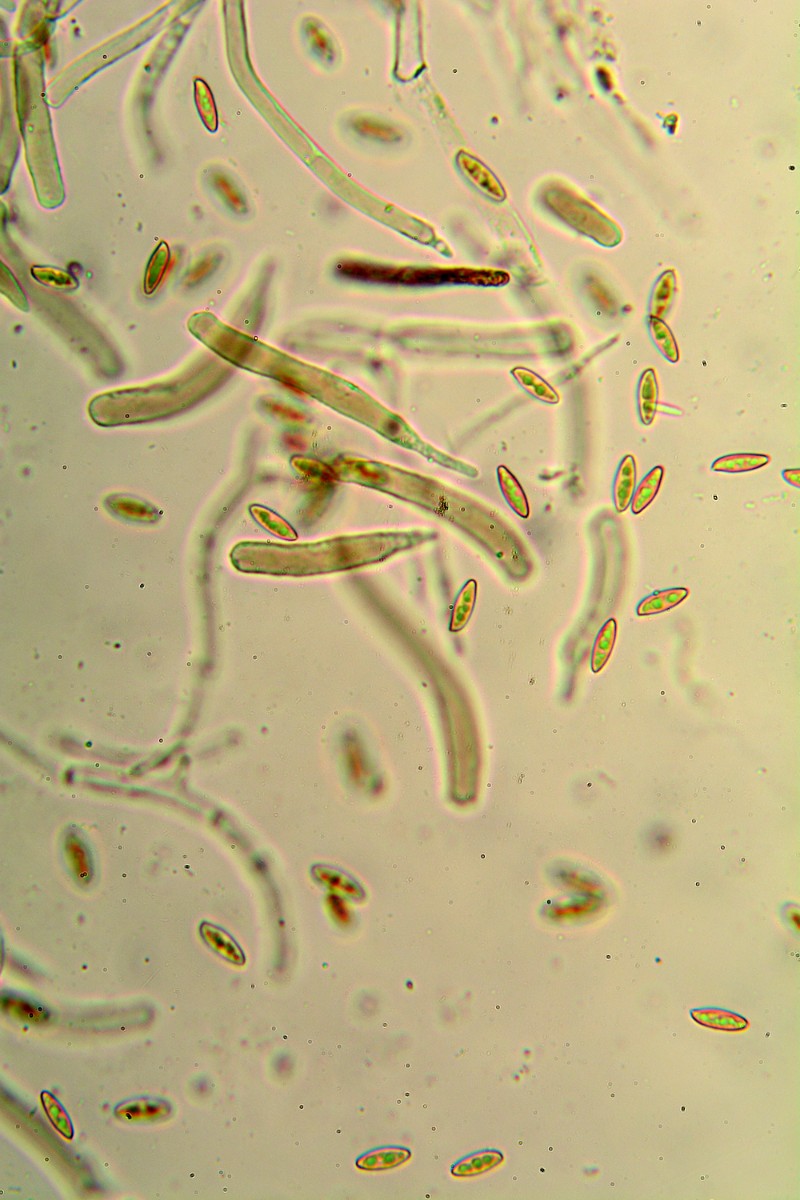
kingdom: Fungi
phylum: Basidiomycota
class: Agaricomycetes
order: Boletales
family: Boletaceae
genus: Leccinum
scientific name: Leccinum cyaneobasileucum
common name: almindelig skælrørhat
